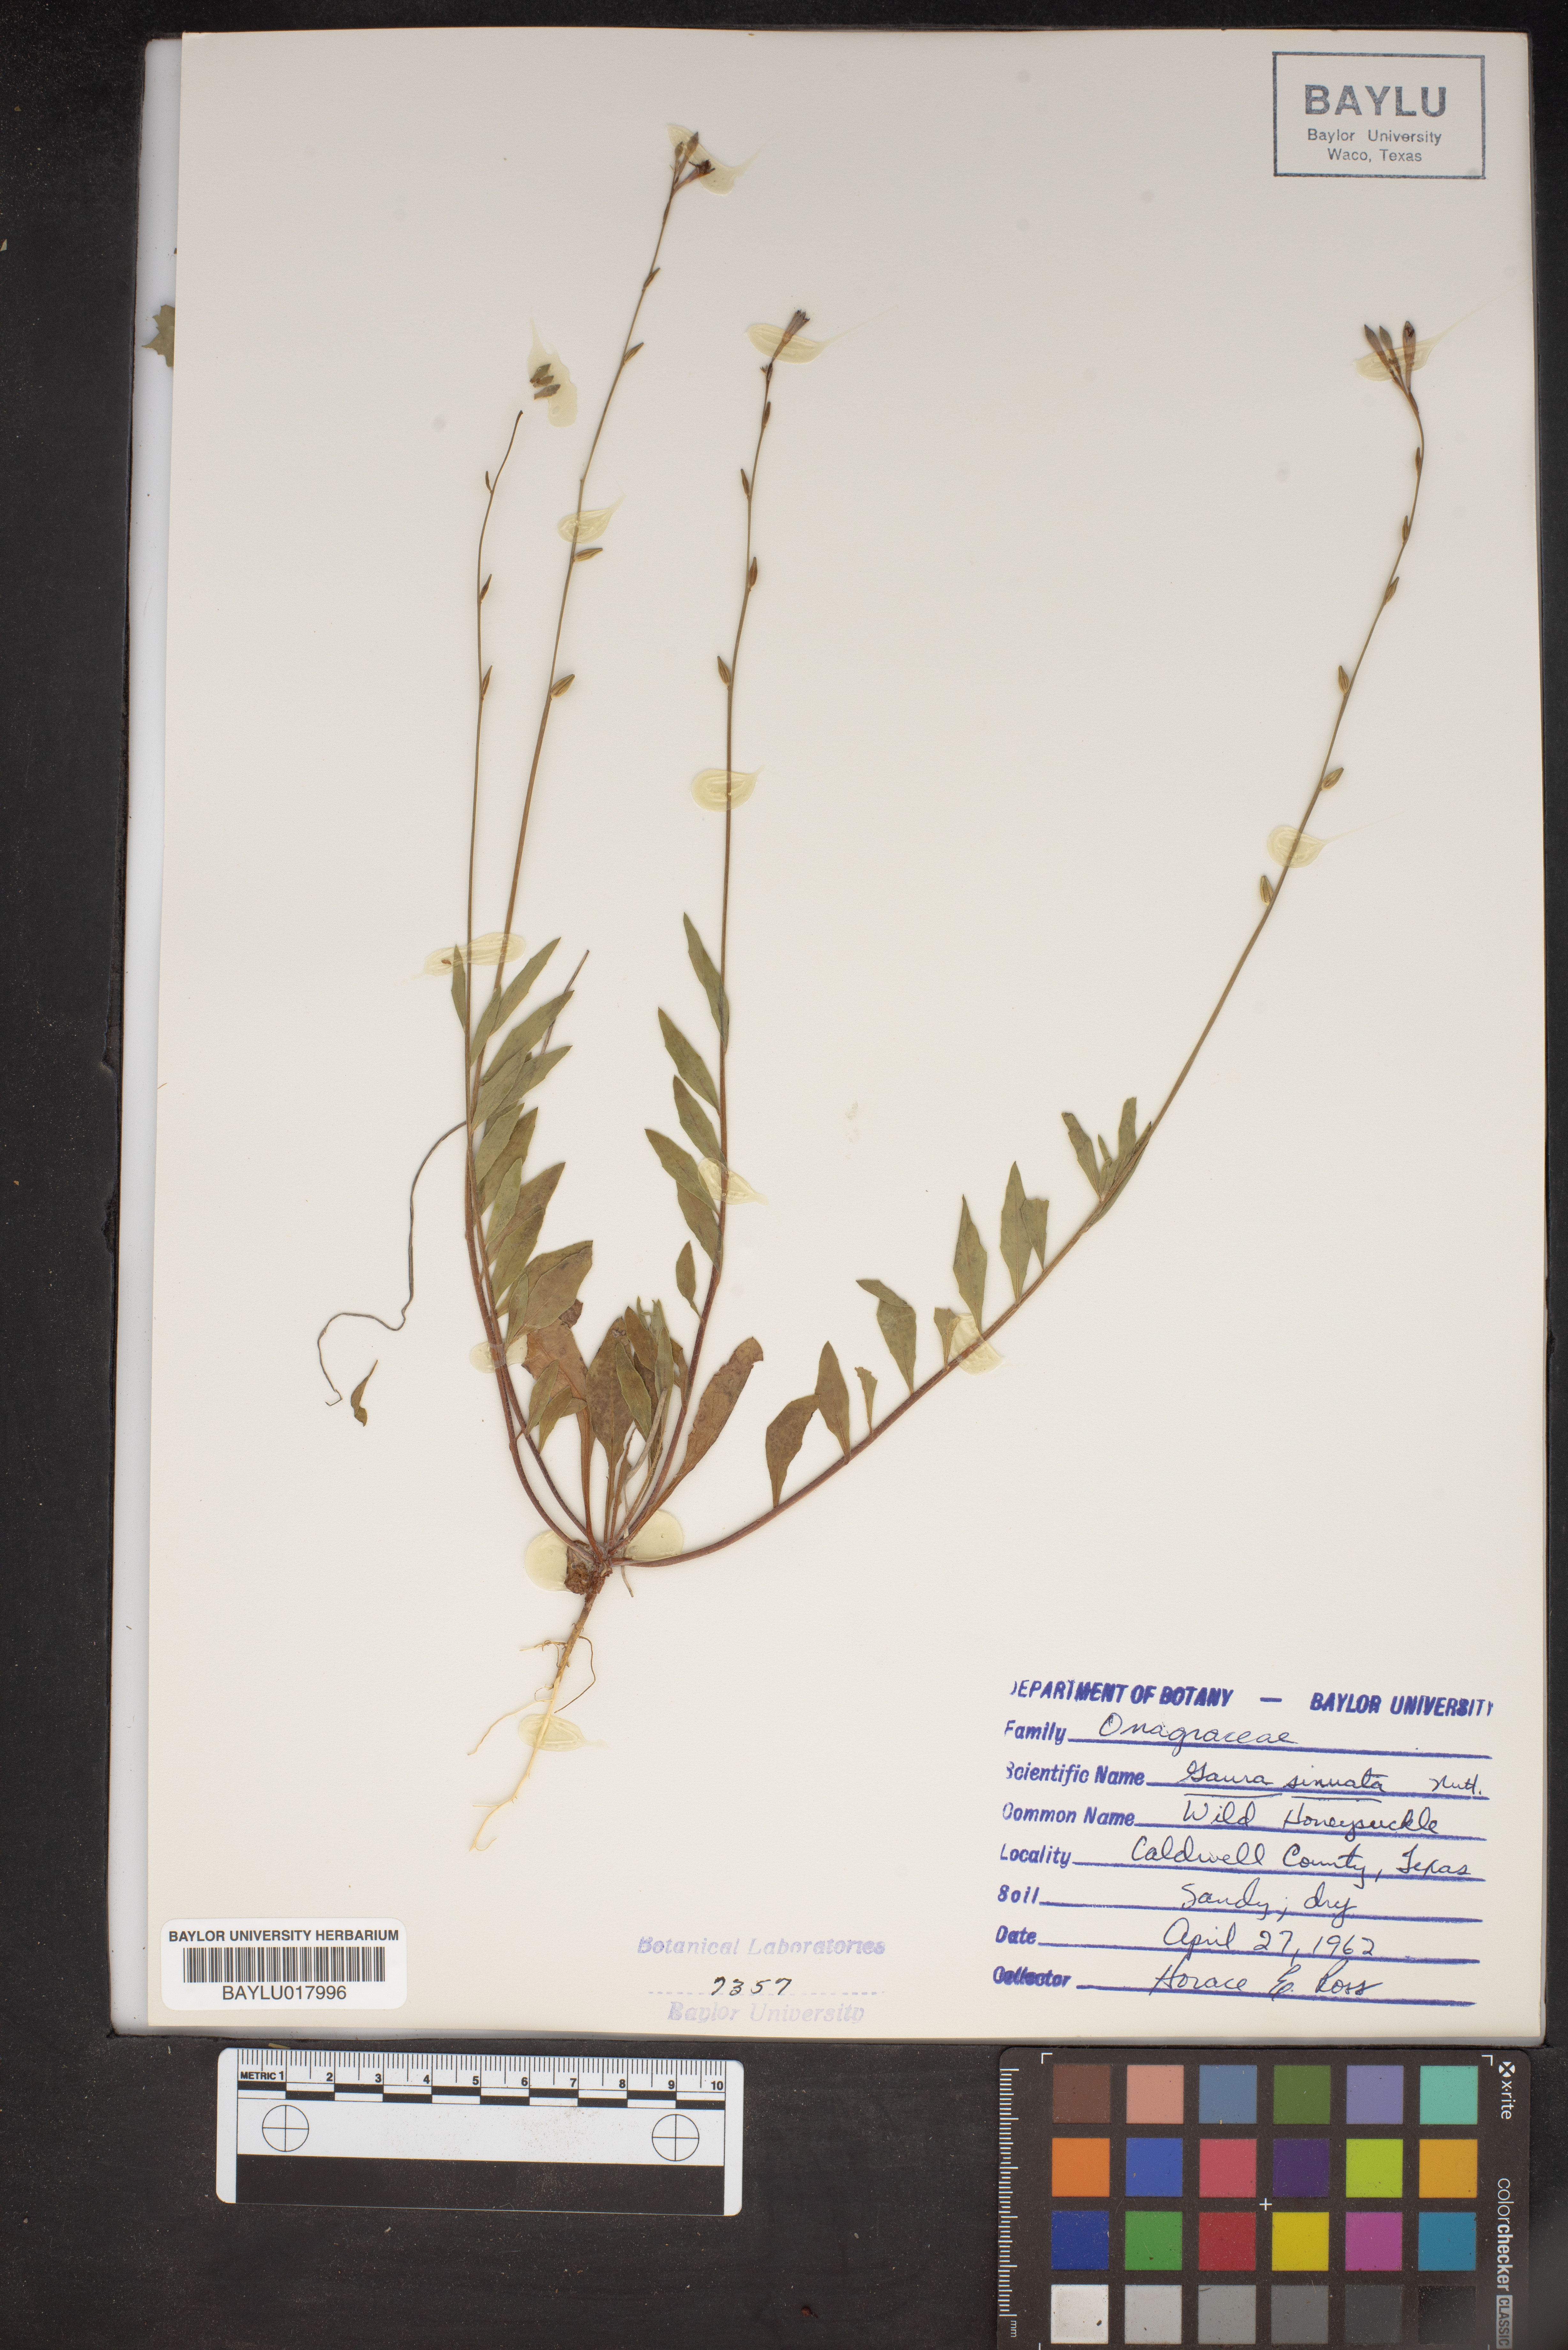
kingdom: Plantae
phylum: Tracheophyta
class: Magnoliopsida
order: Myrtales
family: Onagraceae
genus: Oenothera
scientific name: Oenothera sinuosa
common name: Wavyleaf beeblossom
